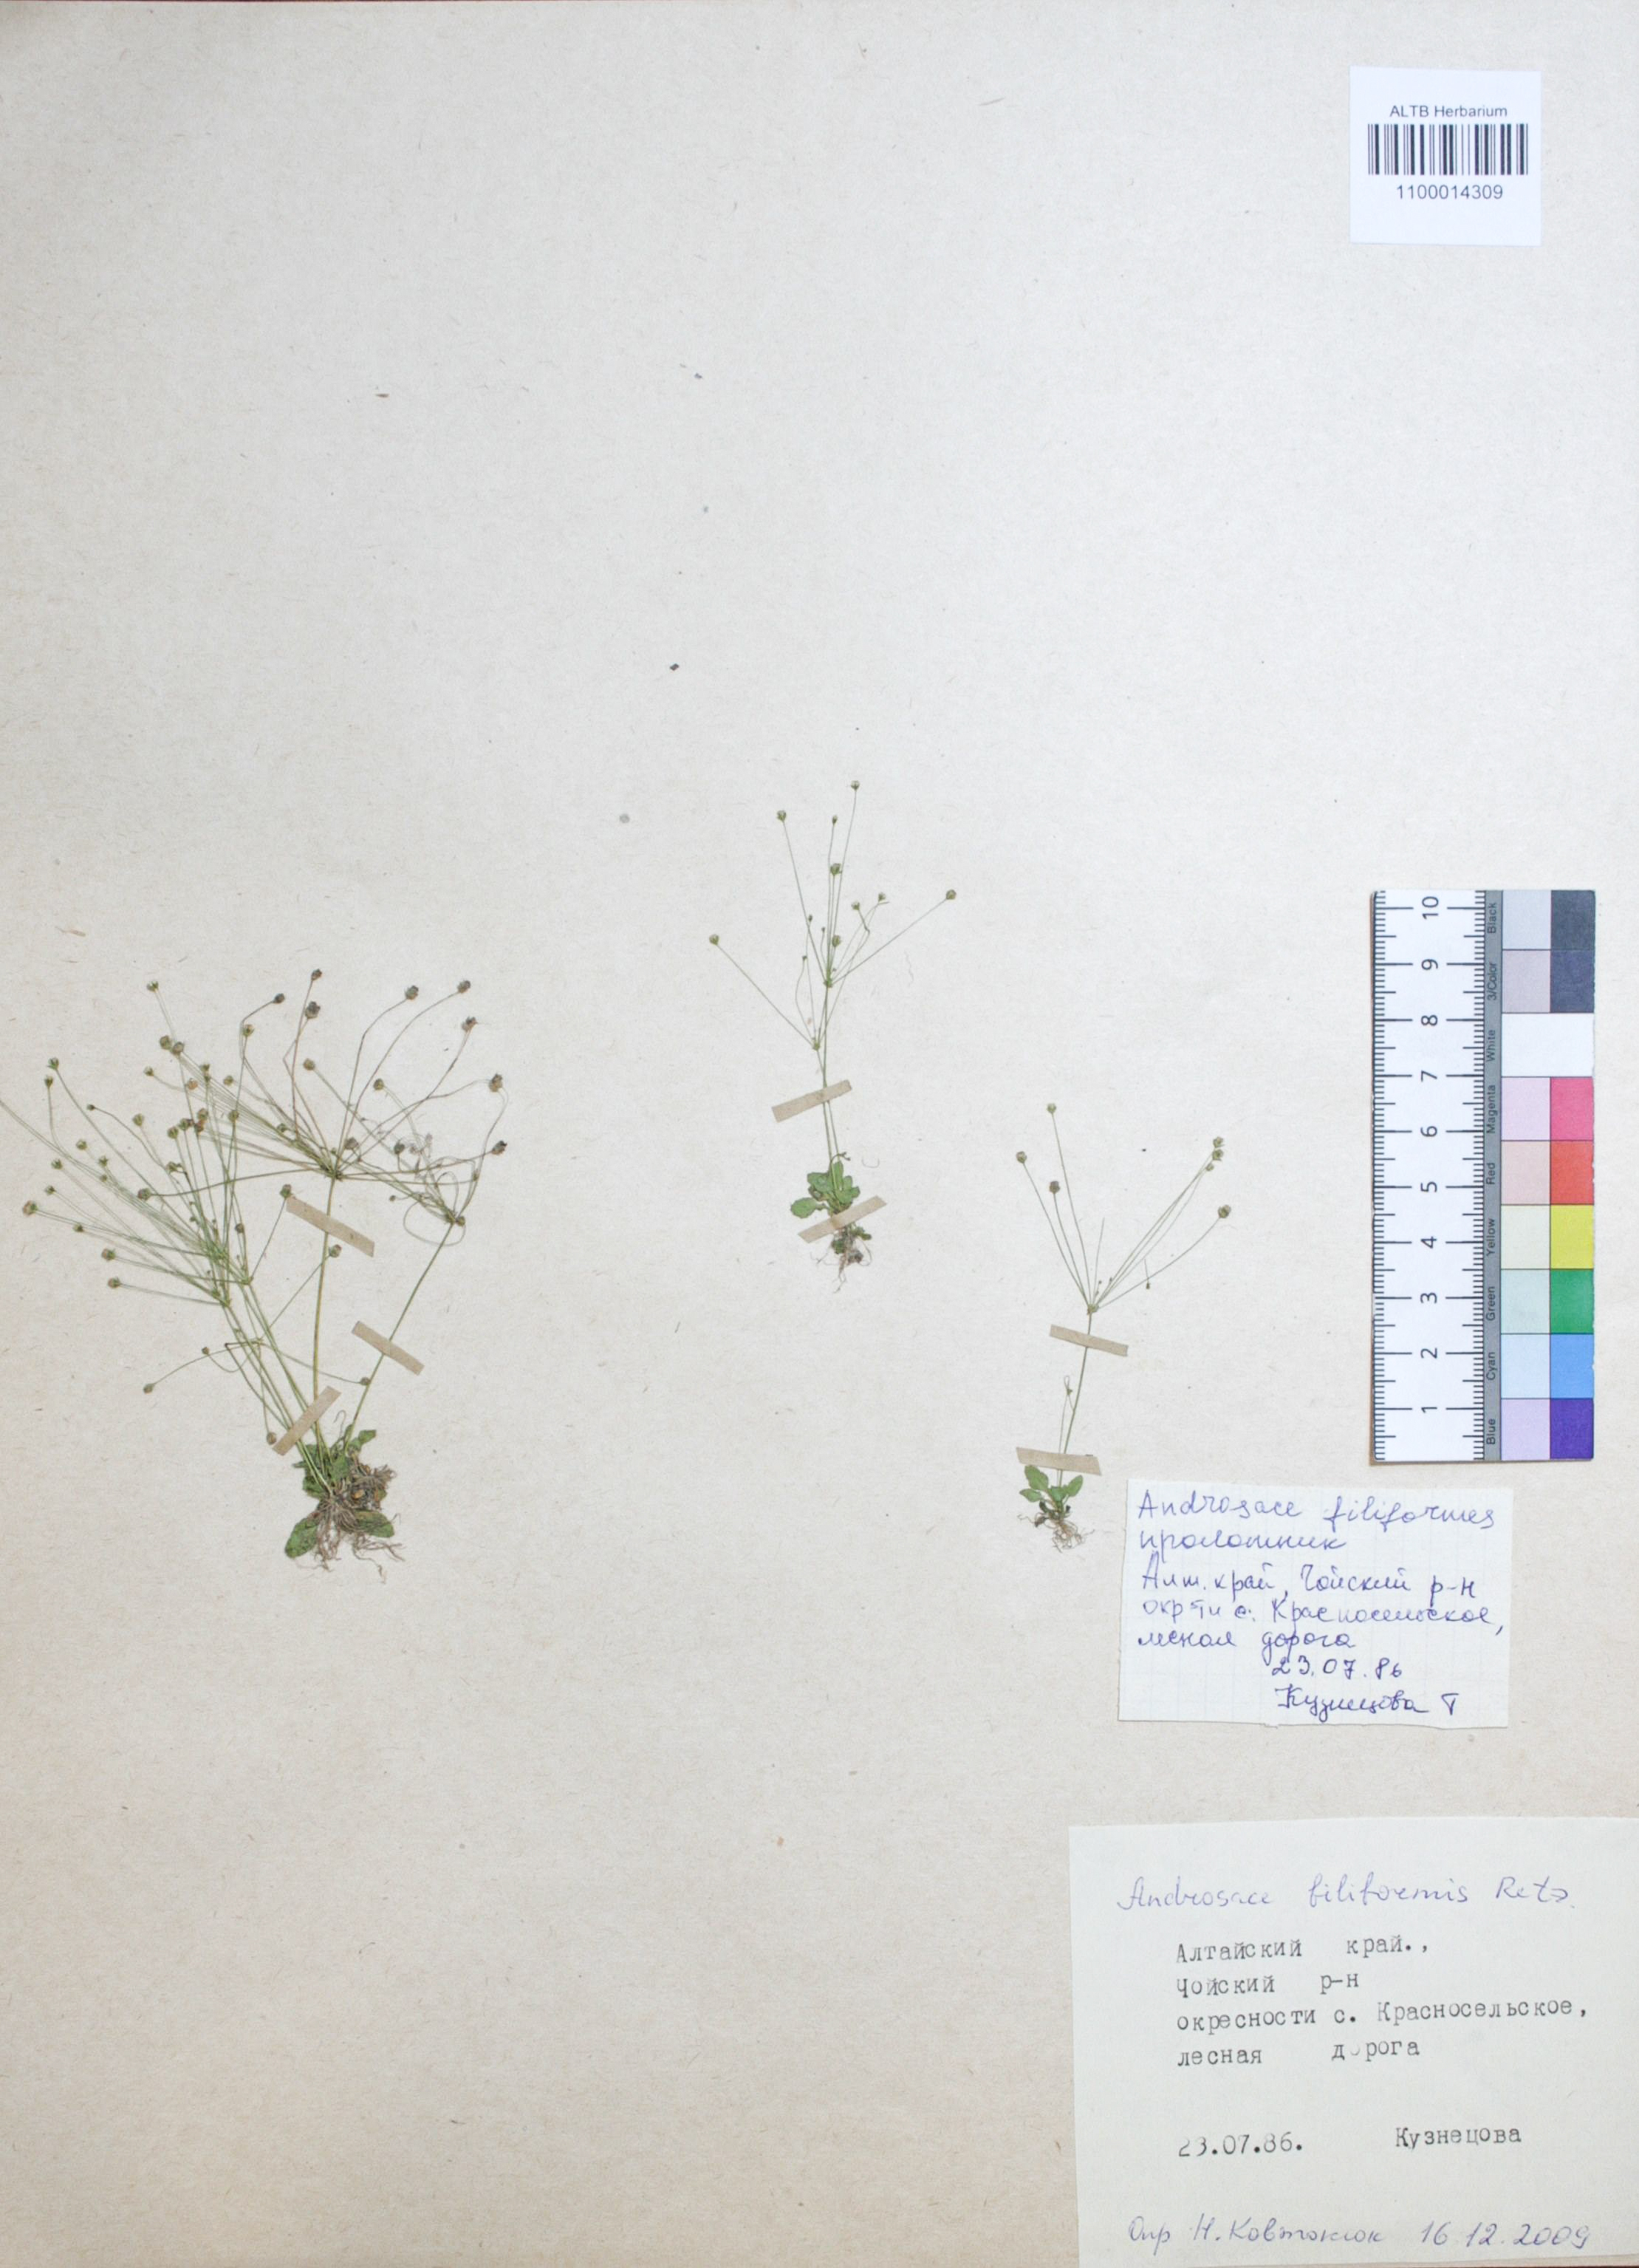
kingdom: Plantae
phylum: Tracheophyta
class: Magnoliopsida
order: Ericales
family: Primulaceae
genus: Androsace
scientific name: Androsace filiformis
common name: Filiform rock jasmine
